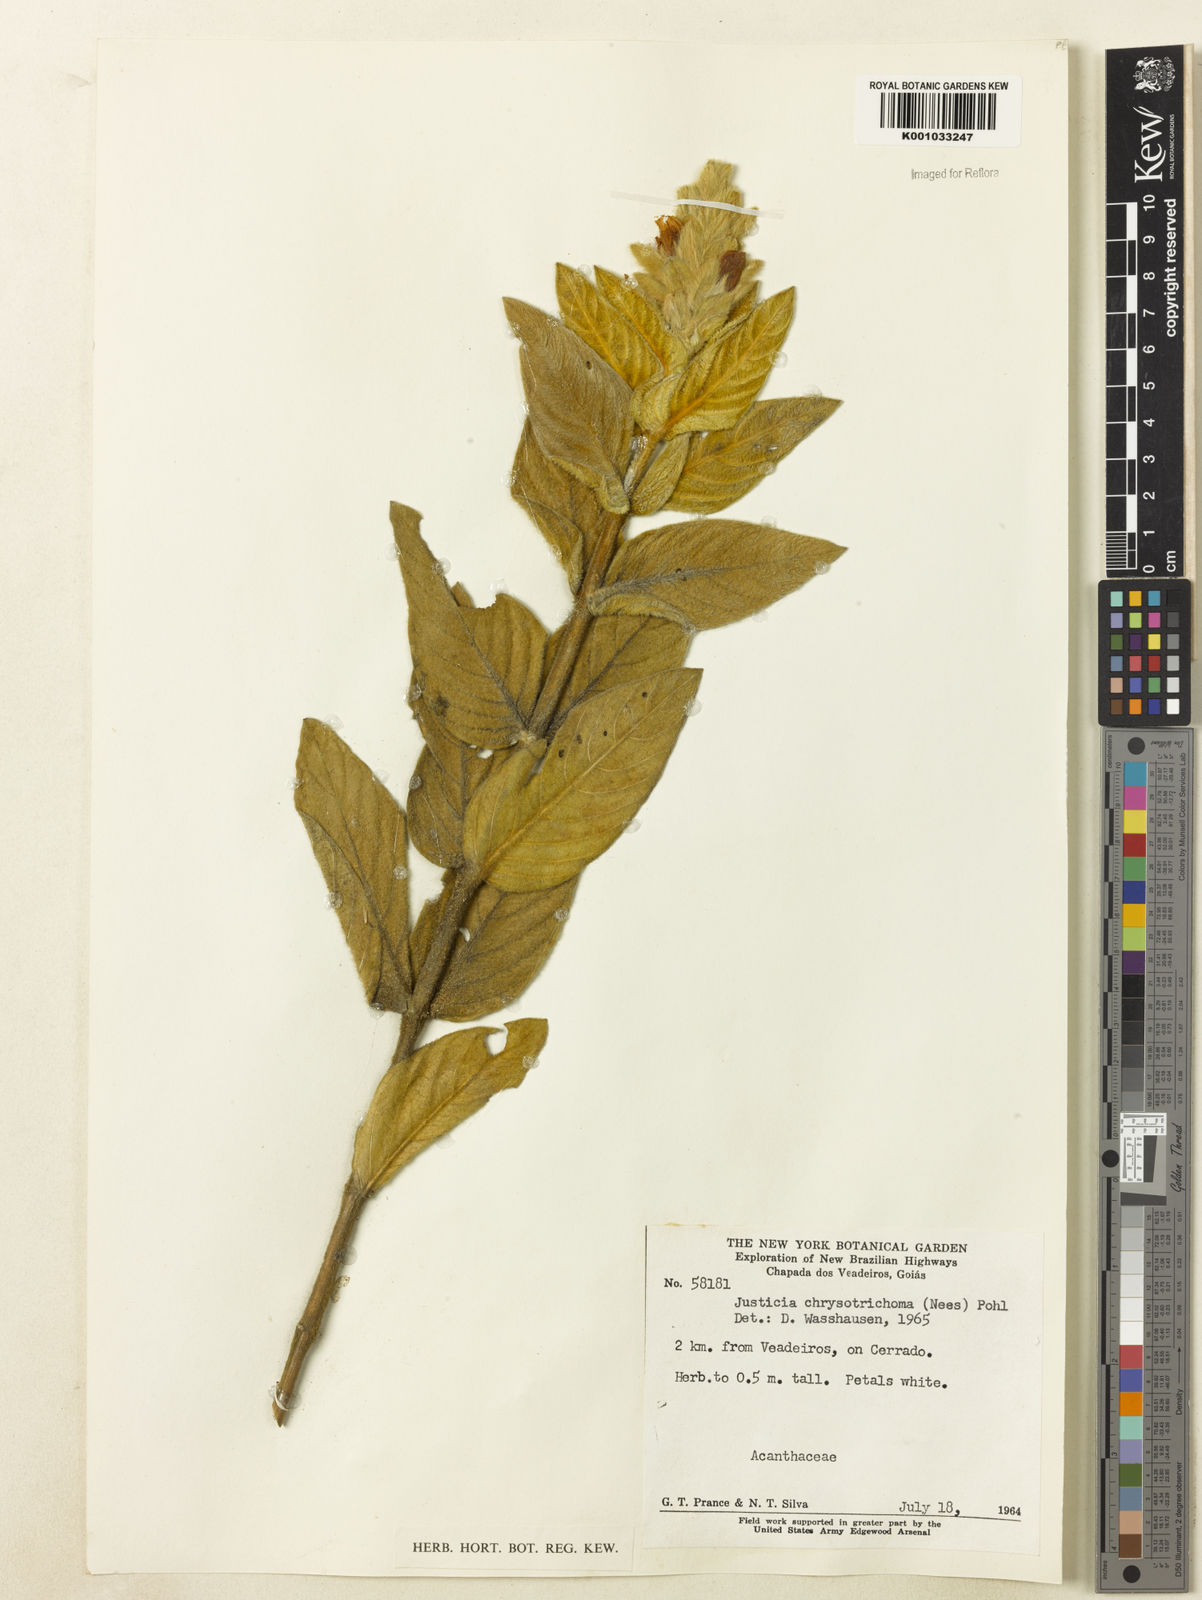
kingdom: Plantae
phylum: Tracheophyta
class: Magnoliopsida
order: Lamiales
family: Acanthaceae
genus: Justicia
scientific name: Justicia chrysotrichoma
